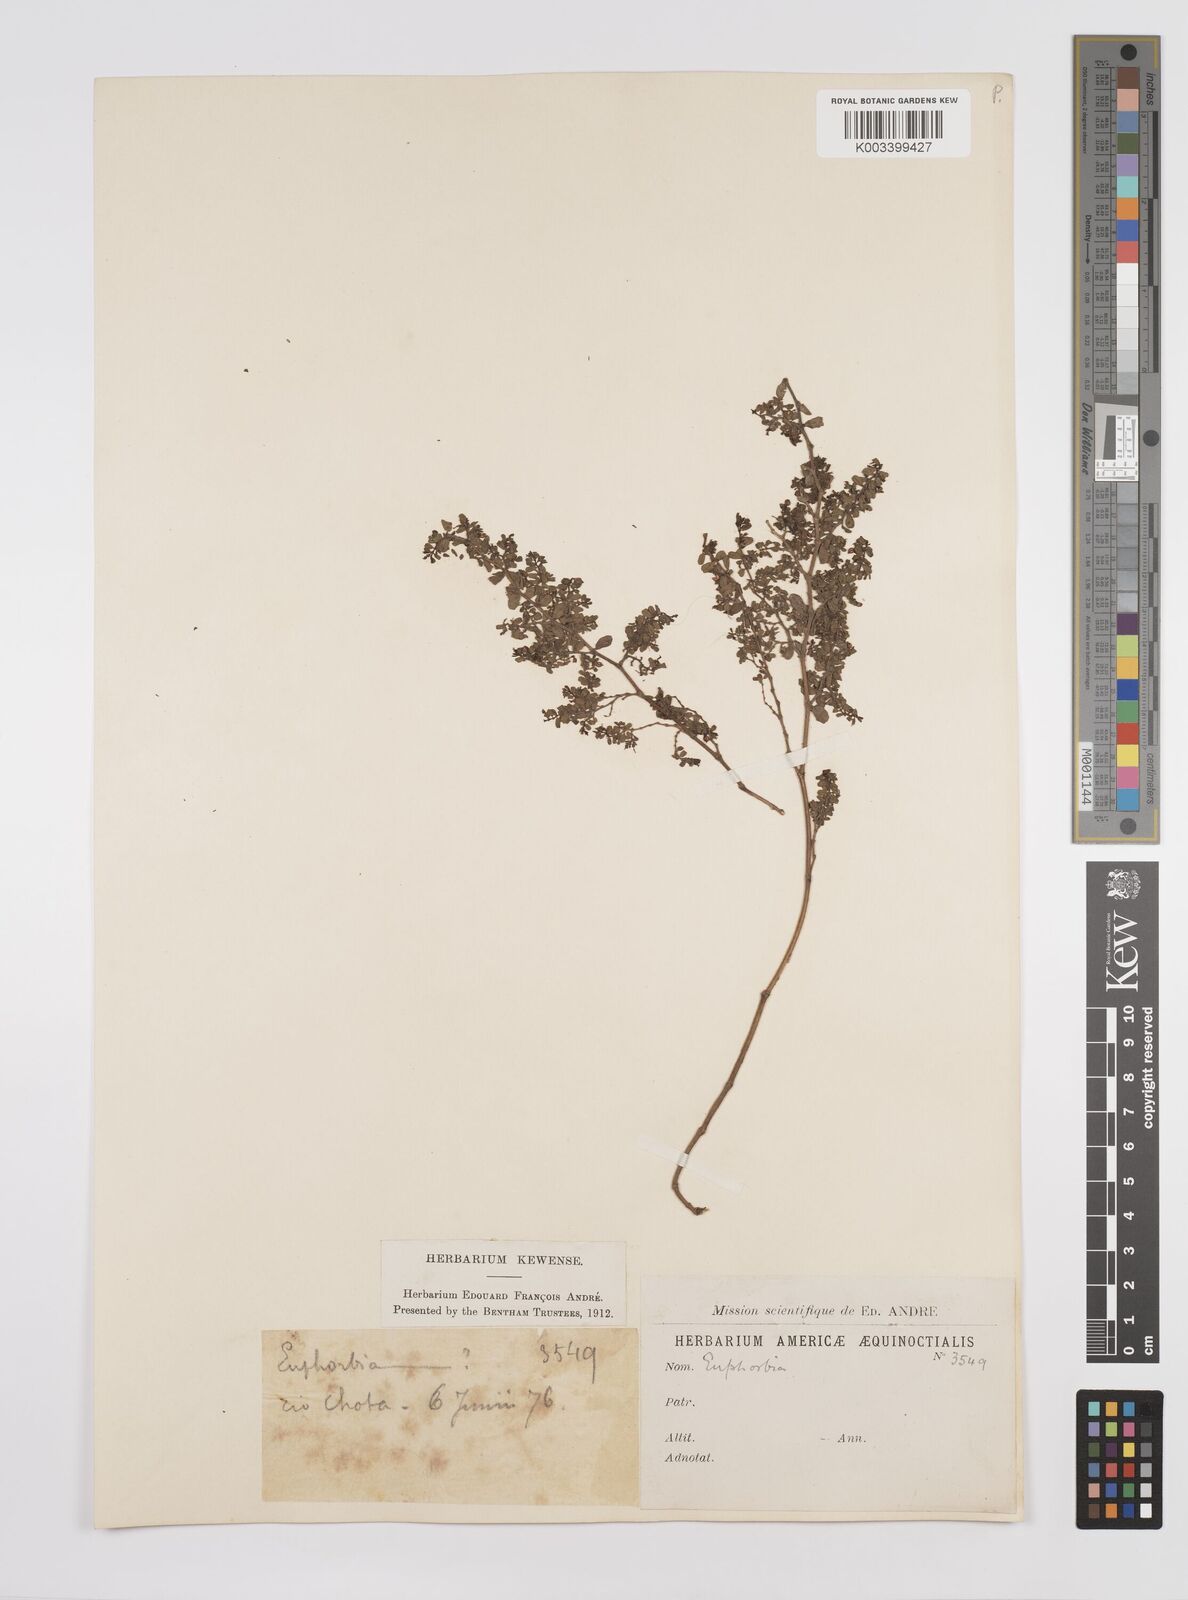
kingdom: Plantae
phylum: Tracheophyta
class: Magnoliopsida
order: Malpighiales
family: Euphorbiaceae
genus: Euphorbia
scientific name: Euphorbia
